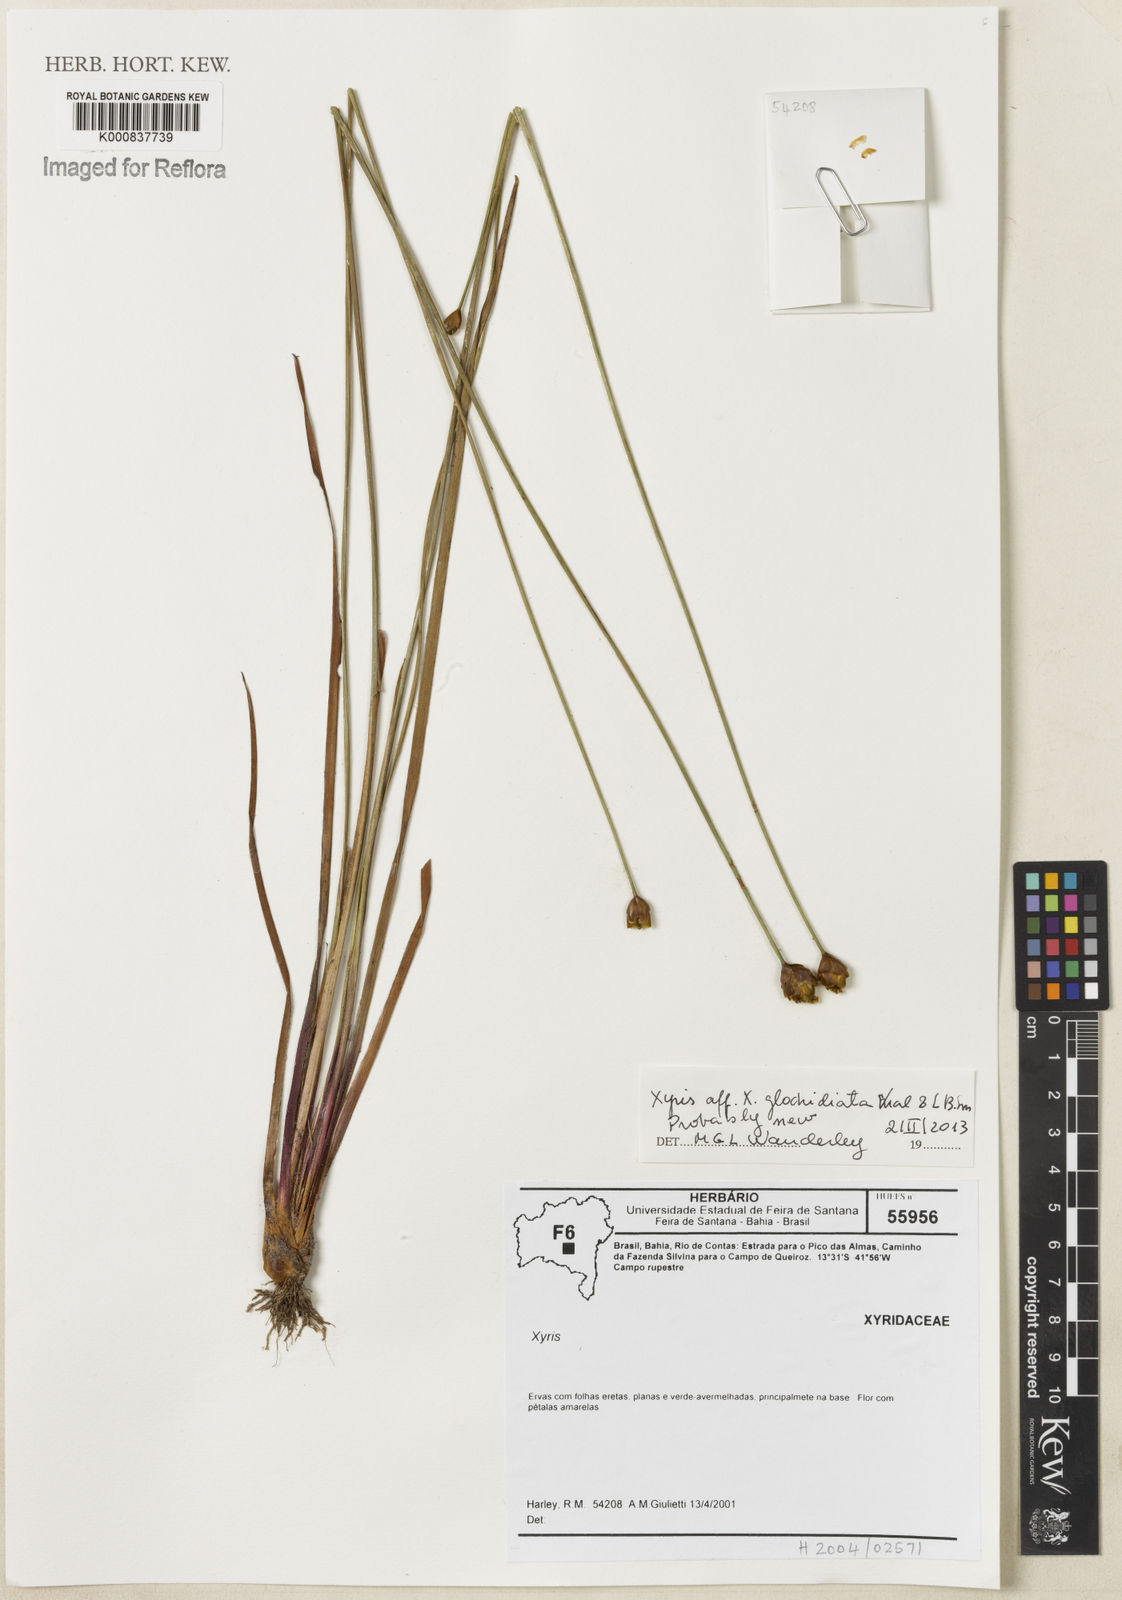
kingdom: Plantae
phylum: Tracheophyta
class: Liliopsida
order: Poales
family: Xyridaceae
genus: Xyris
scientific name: Xyris
